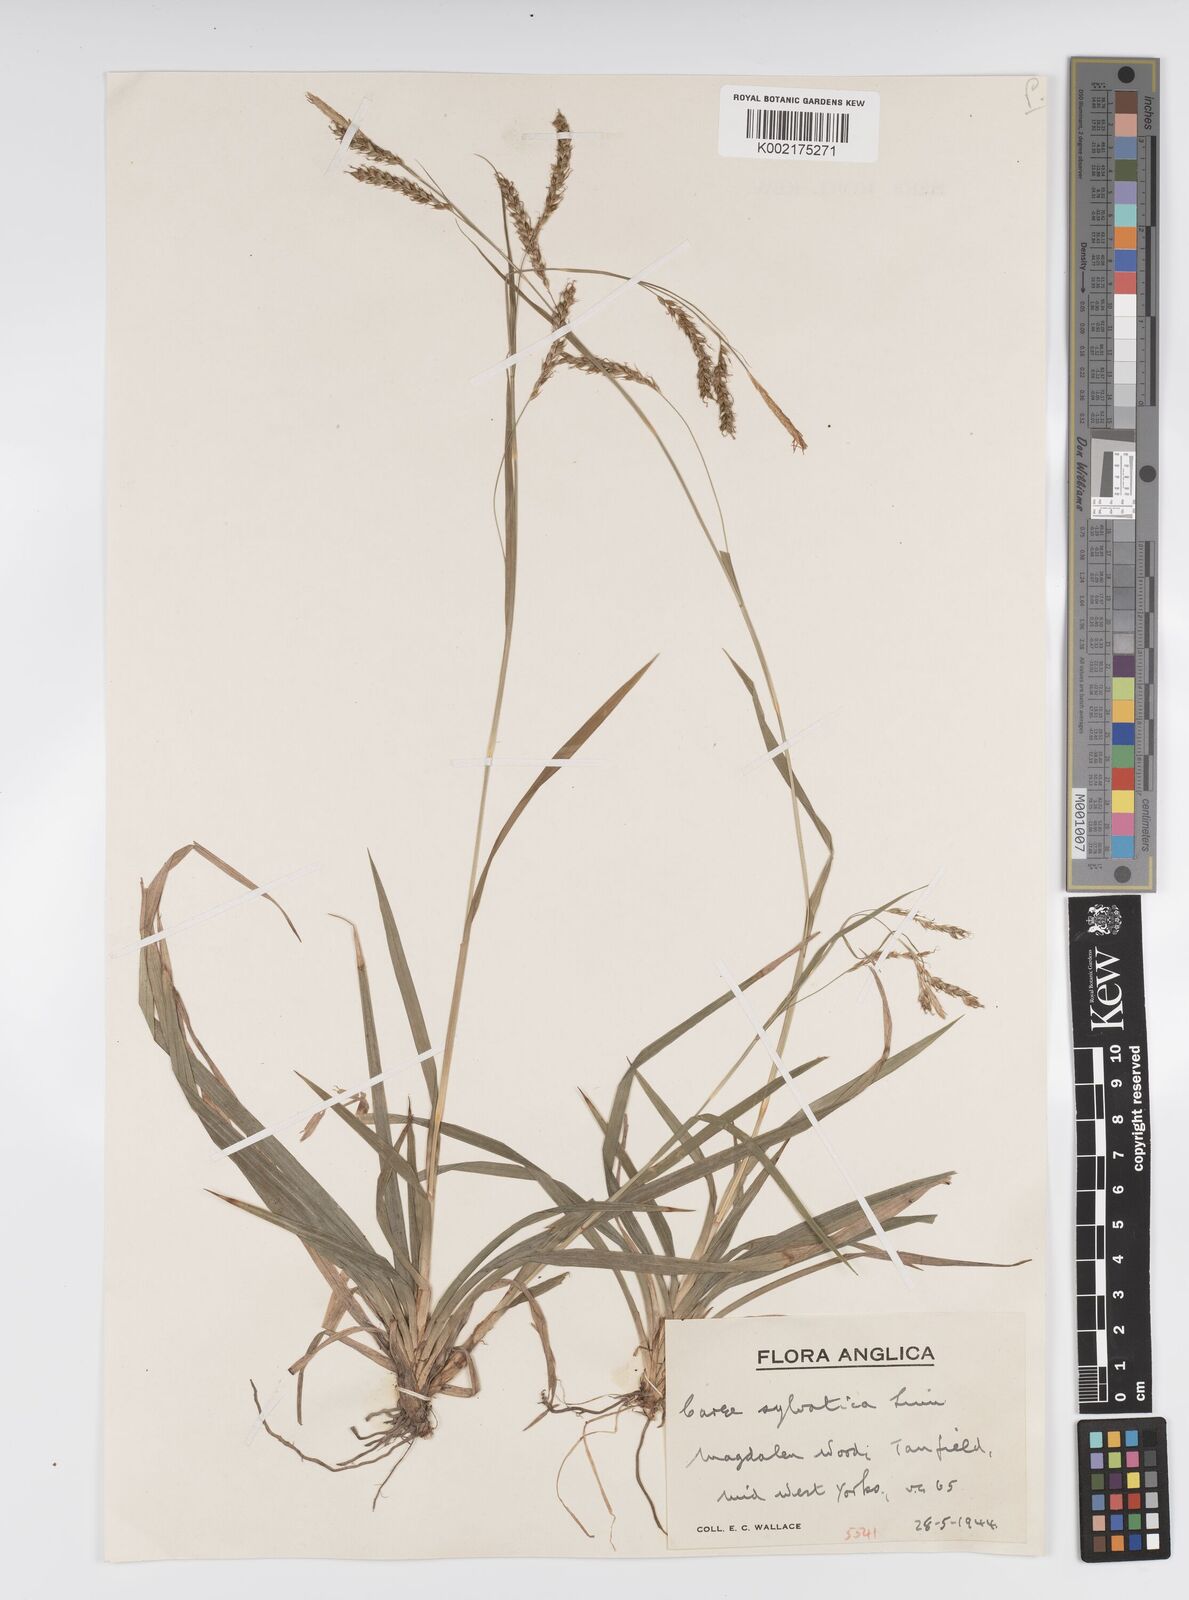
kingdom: Plantae
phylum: Tracheophyta
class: Liliopsida
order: Poales
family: Cyperaceae
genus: Carex
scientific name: Carex sylvatica
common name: Wood-sedge
